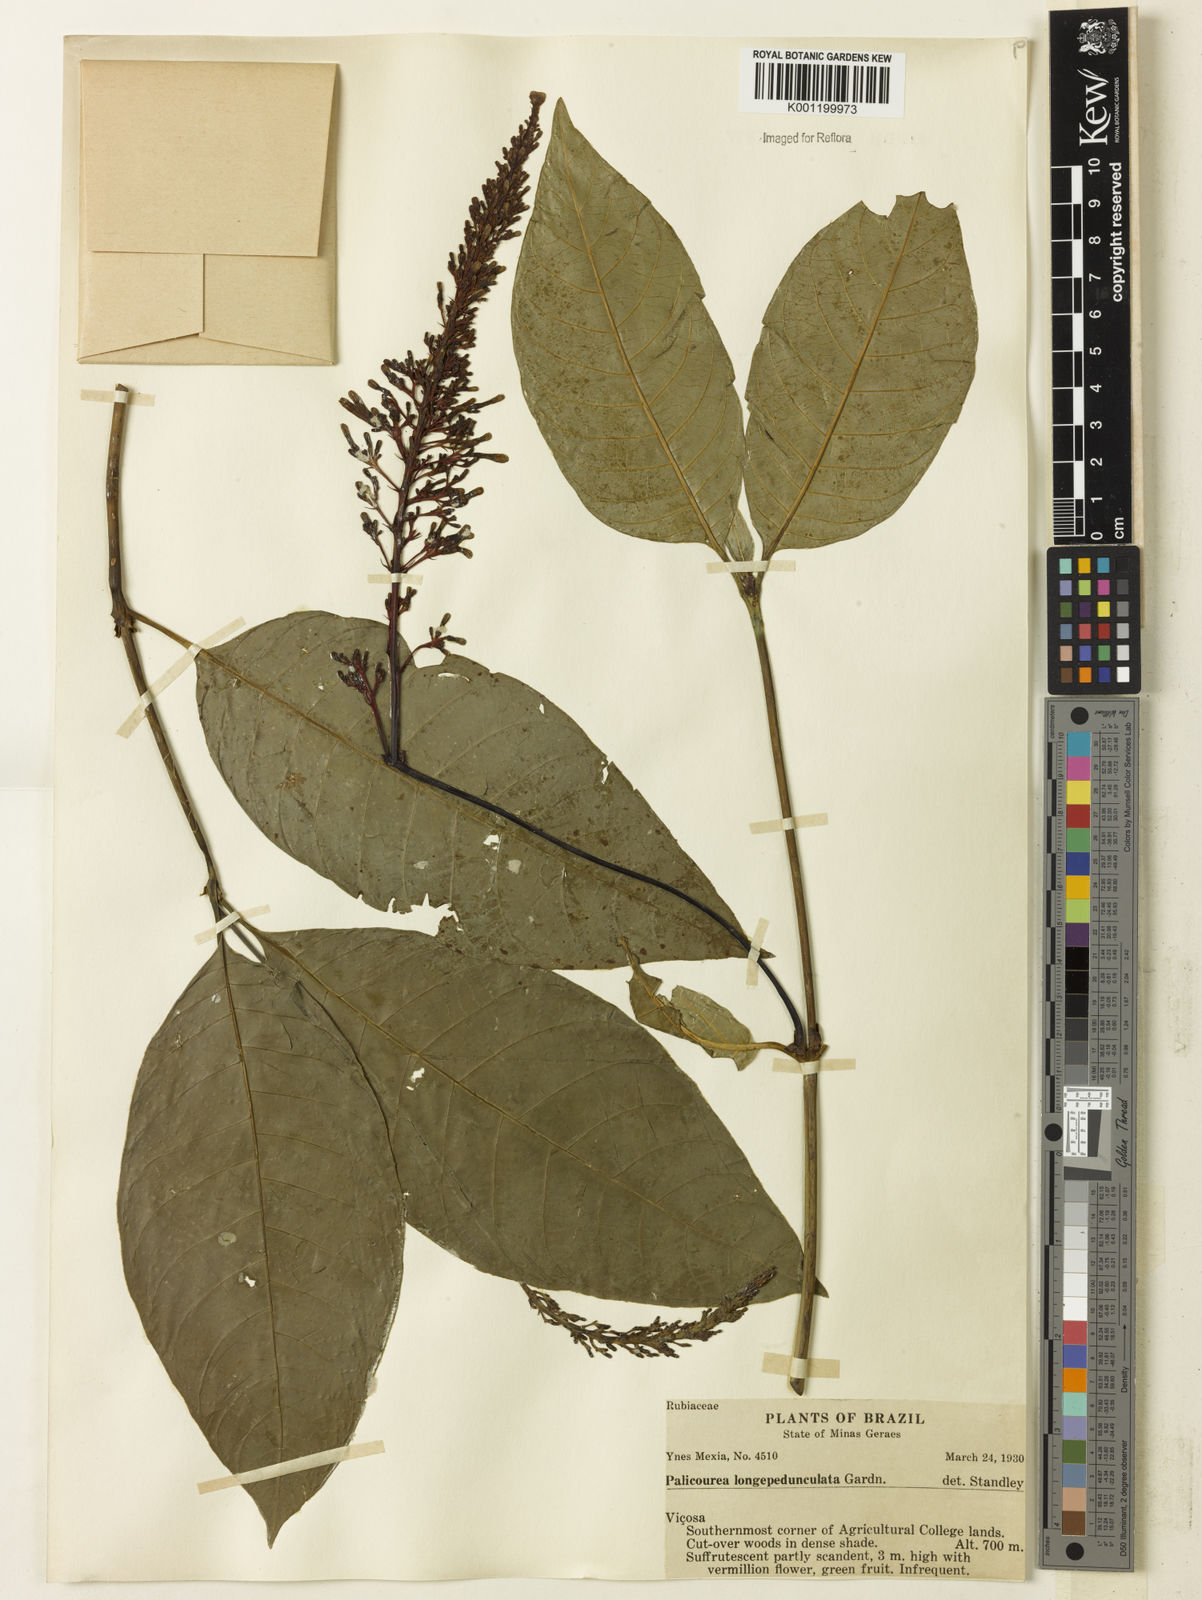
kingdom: Plantae
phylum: Tracheophyta
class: Magnoliopsida
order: Gentianales
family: Rubiaceae
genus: Palicourea
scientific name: Palicourea longipedunculata
